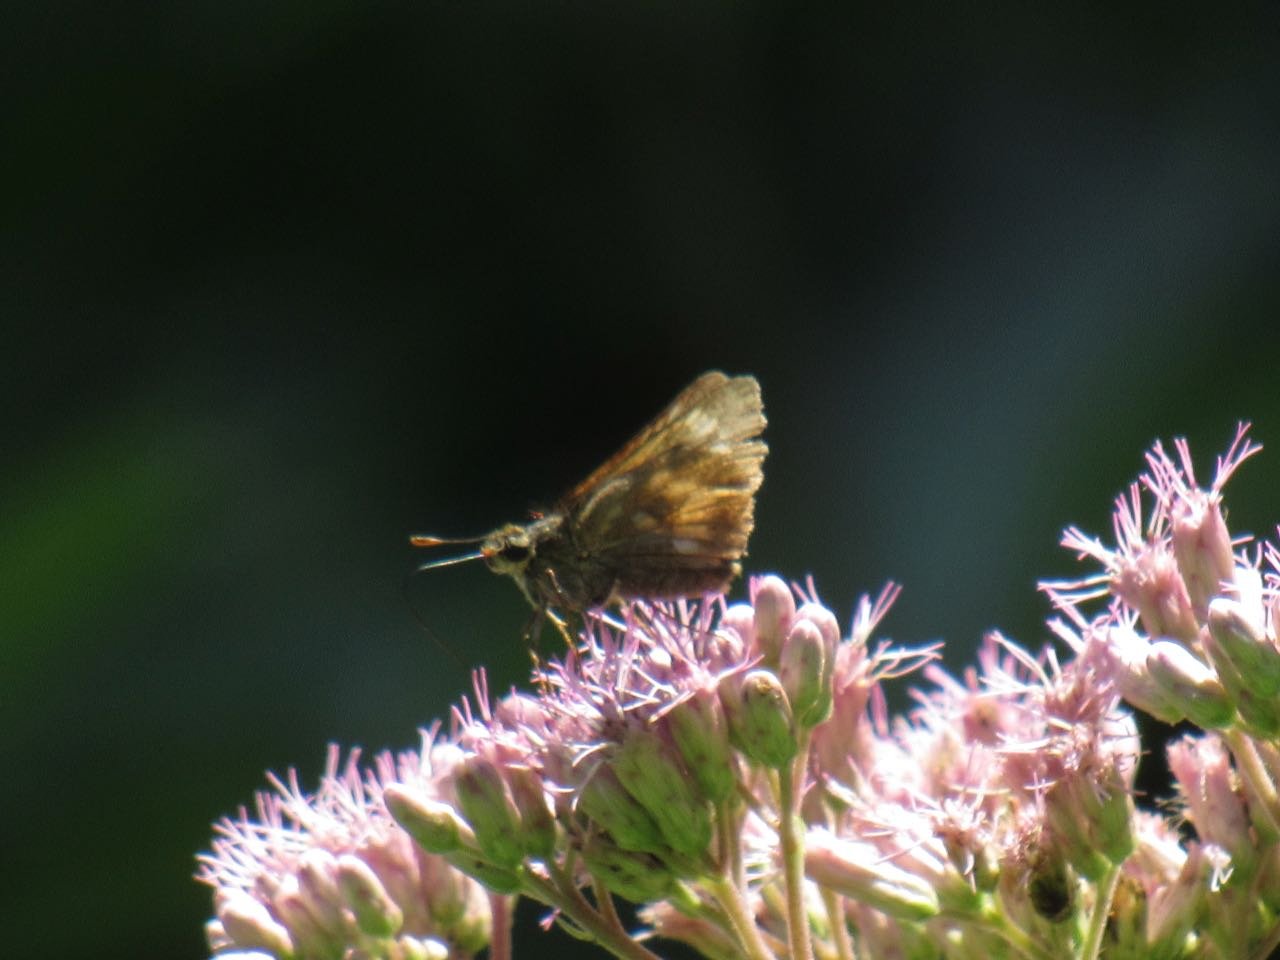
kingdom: Animalia
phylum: Arthropoda
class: Insecta
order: Lepidoptera
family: Hesperiidae
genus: Polites
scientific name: Polites
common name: Long Dash Skipper
